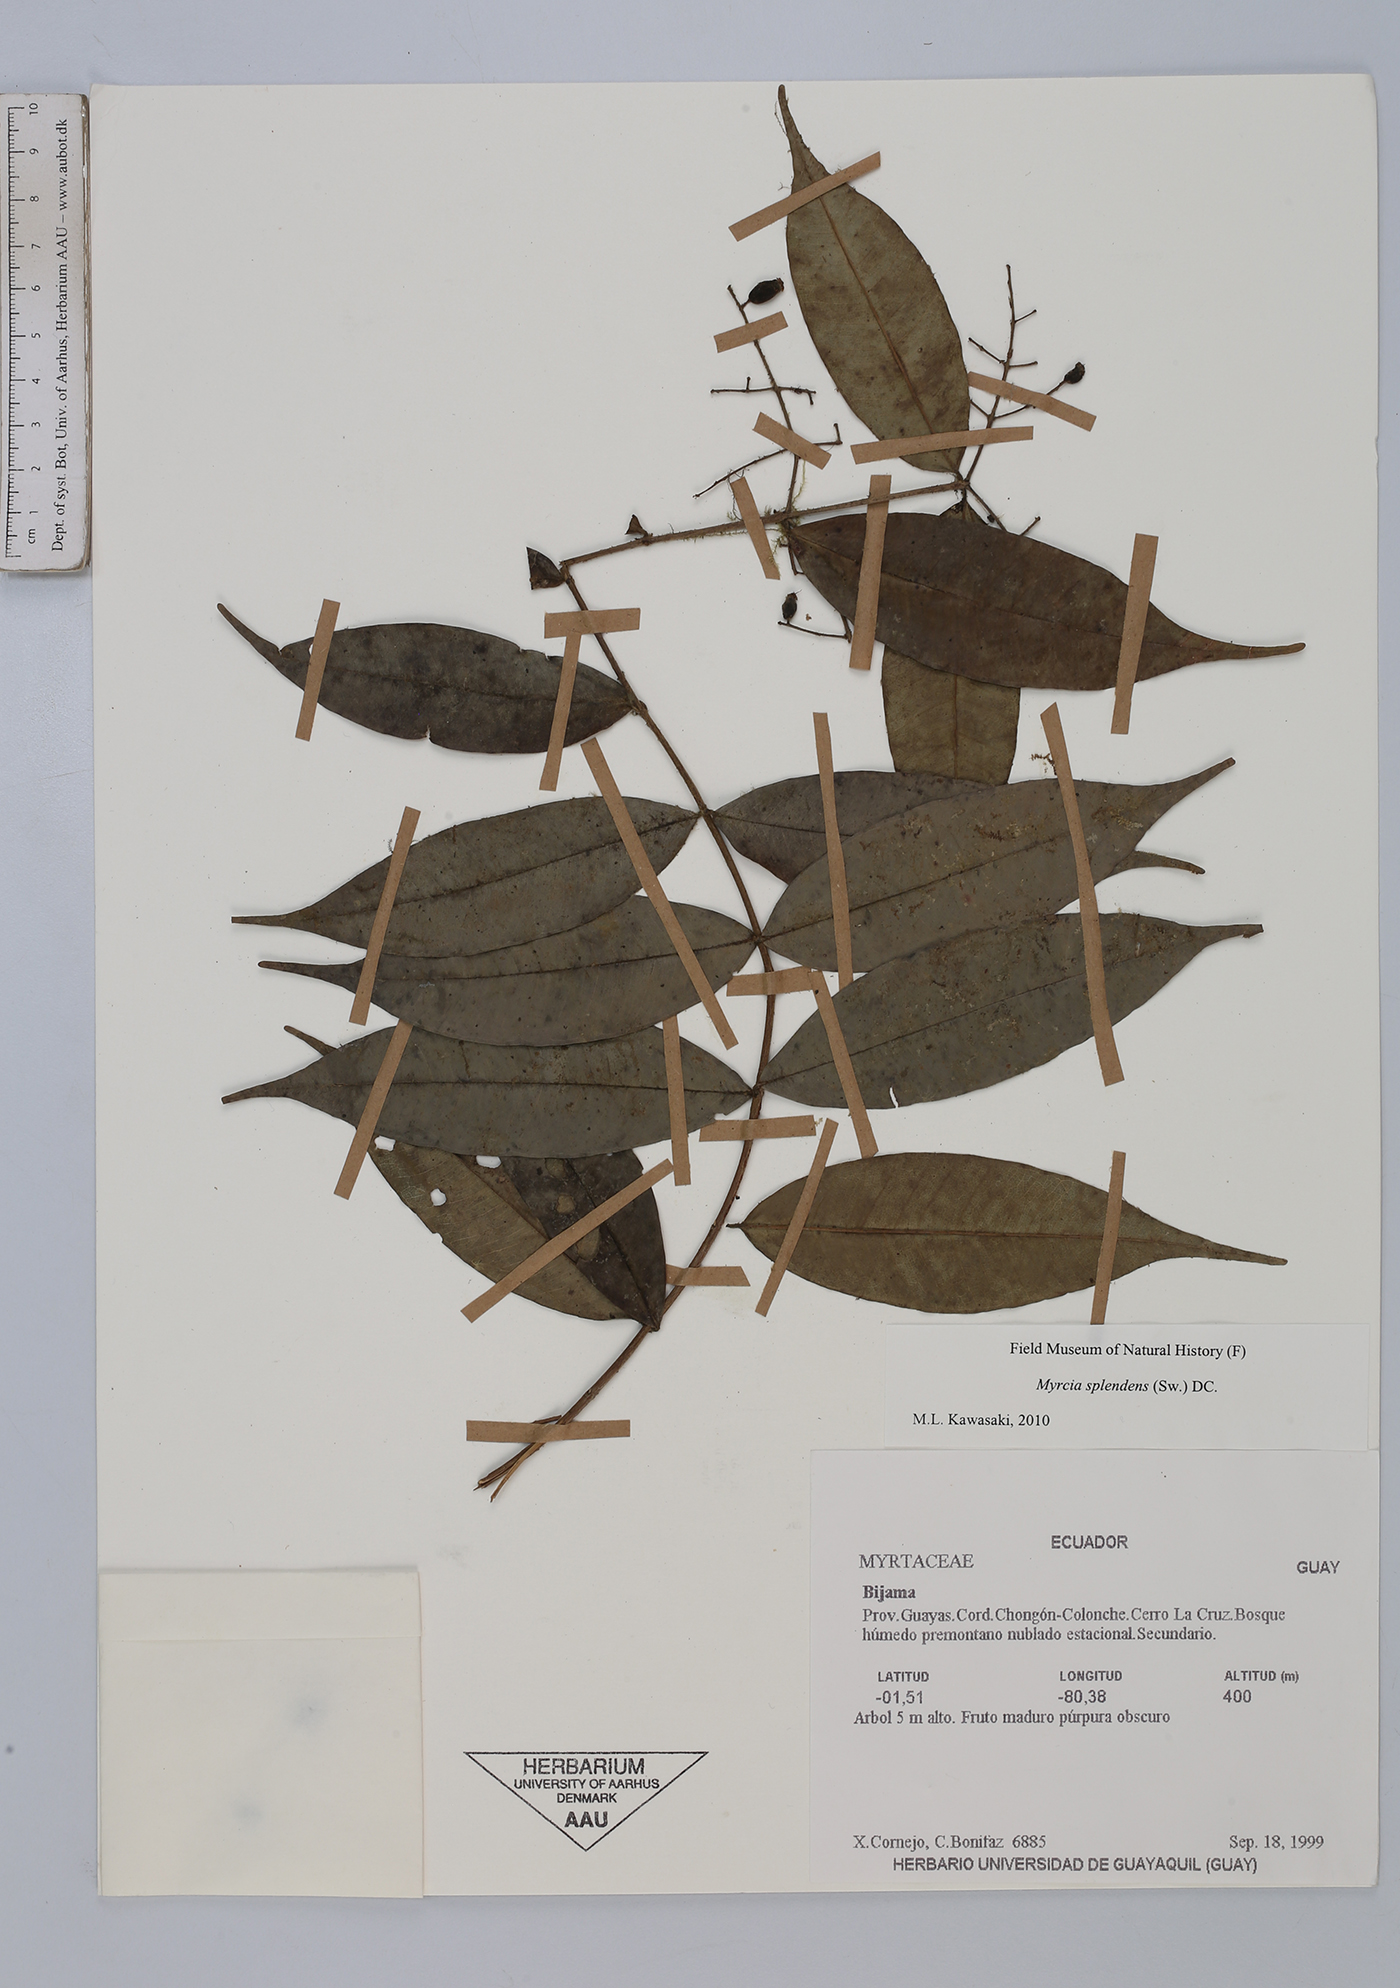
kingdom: Plantae
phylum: Tracheophyta
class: Magnoliopsida
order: Myrtales
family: Myrtaceae
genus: Myrcia
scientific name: Myrcia splendens
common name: Surinam cherry
